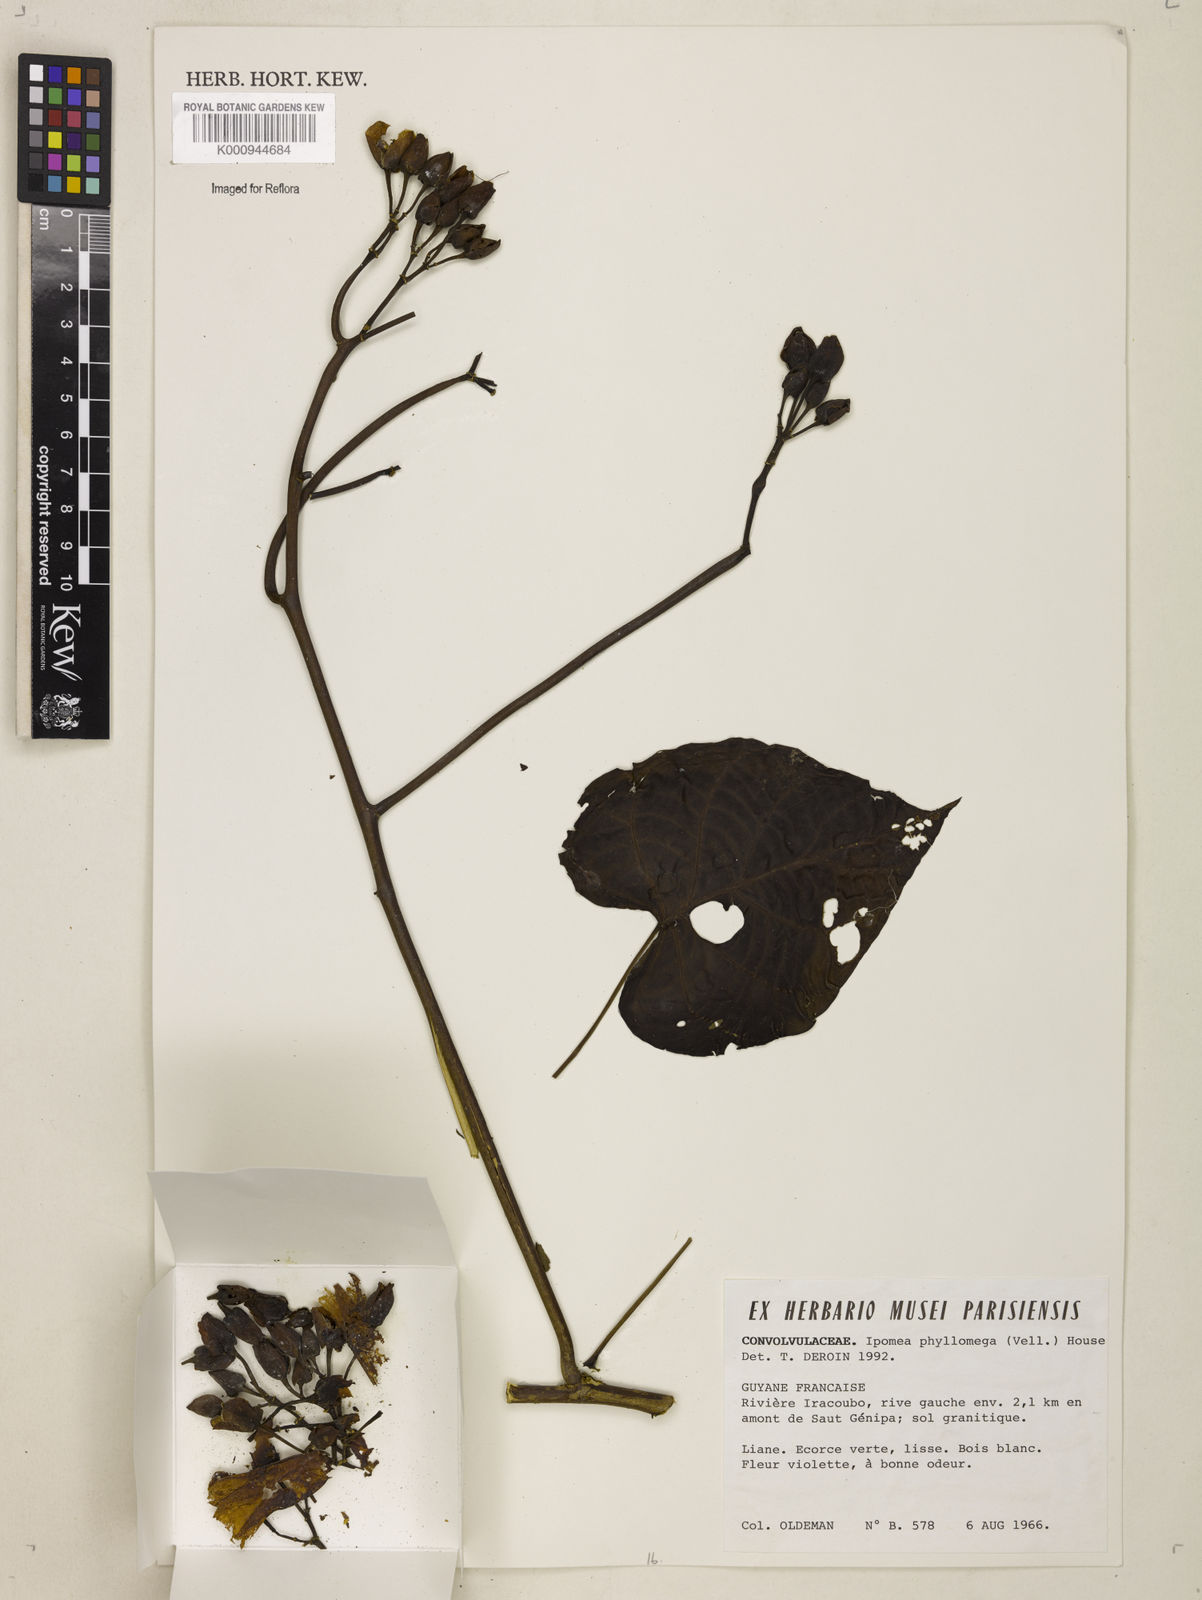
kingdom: Plantae
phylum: Tracheophyta
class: Magnoliopsida
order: Solanales
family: Convolvulaceae
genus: Ipomoea
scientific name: Ipomoea philomega
